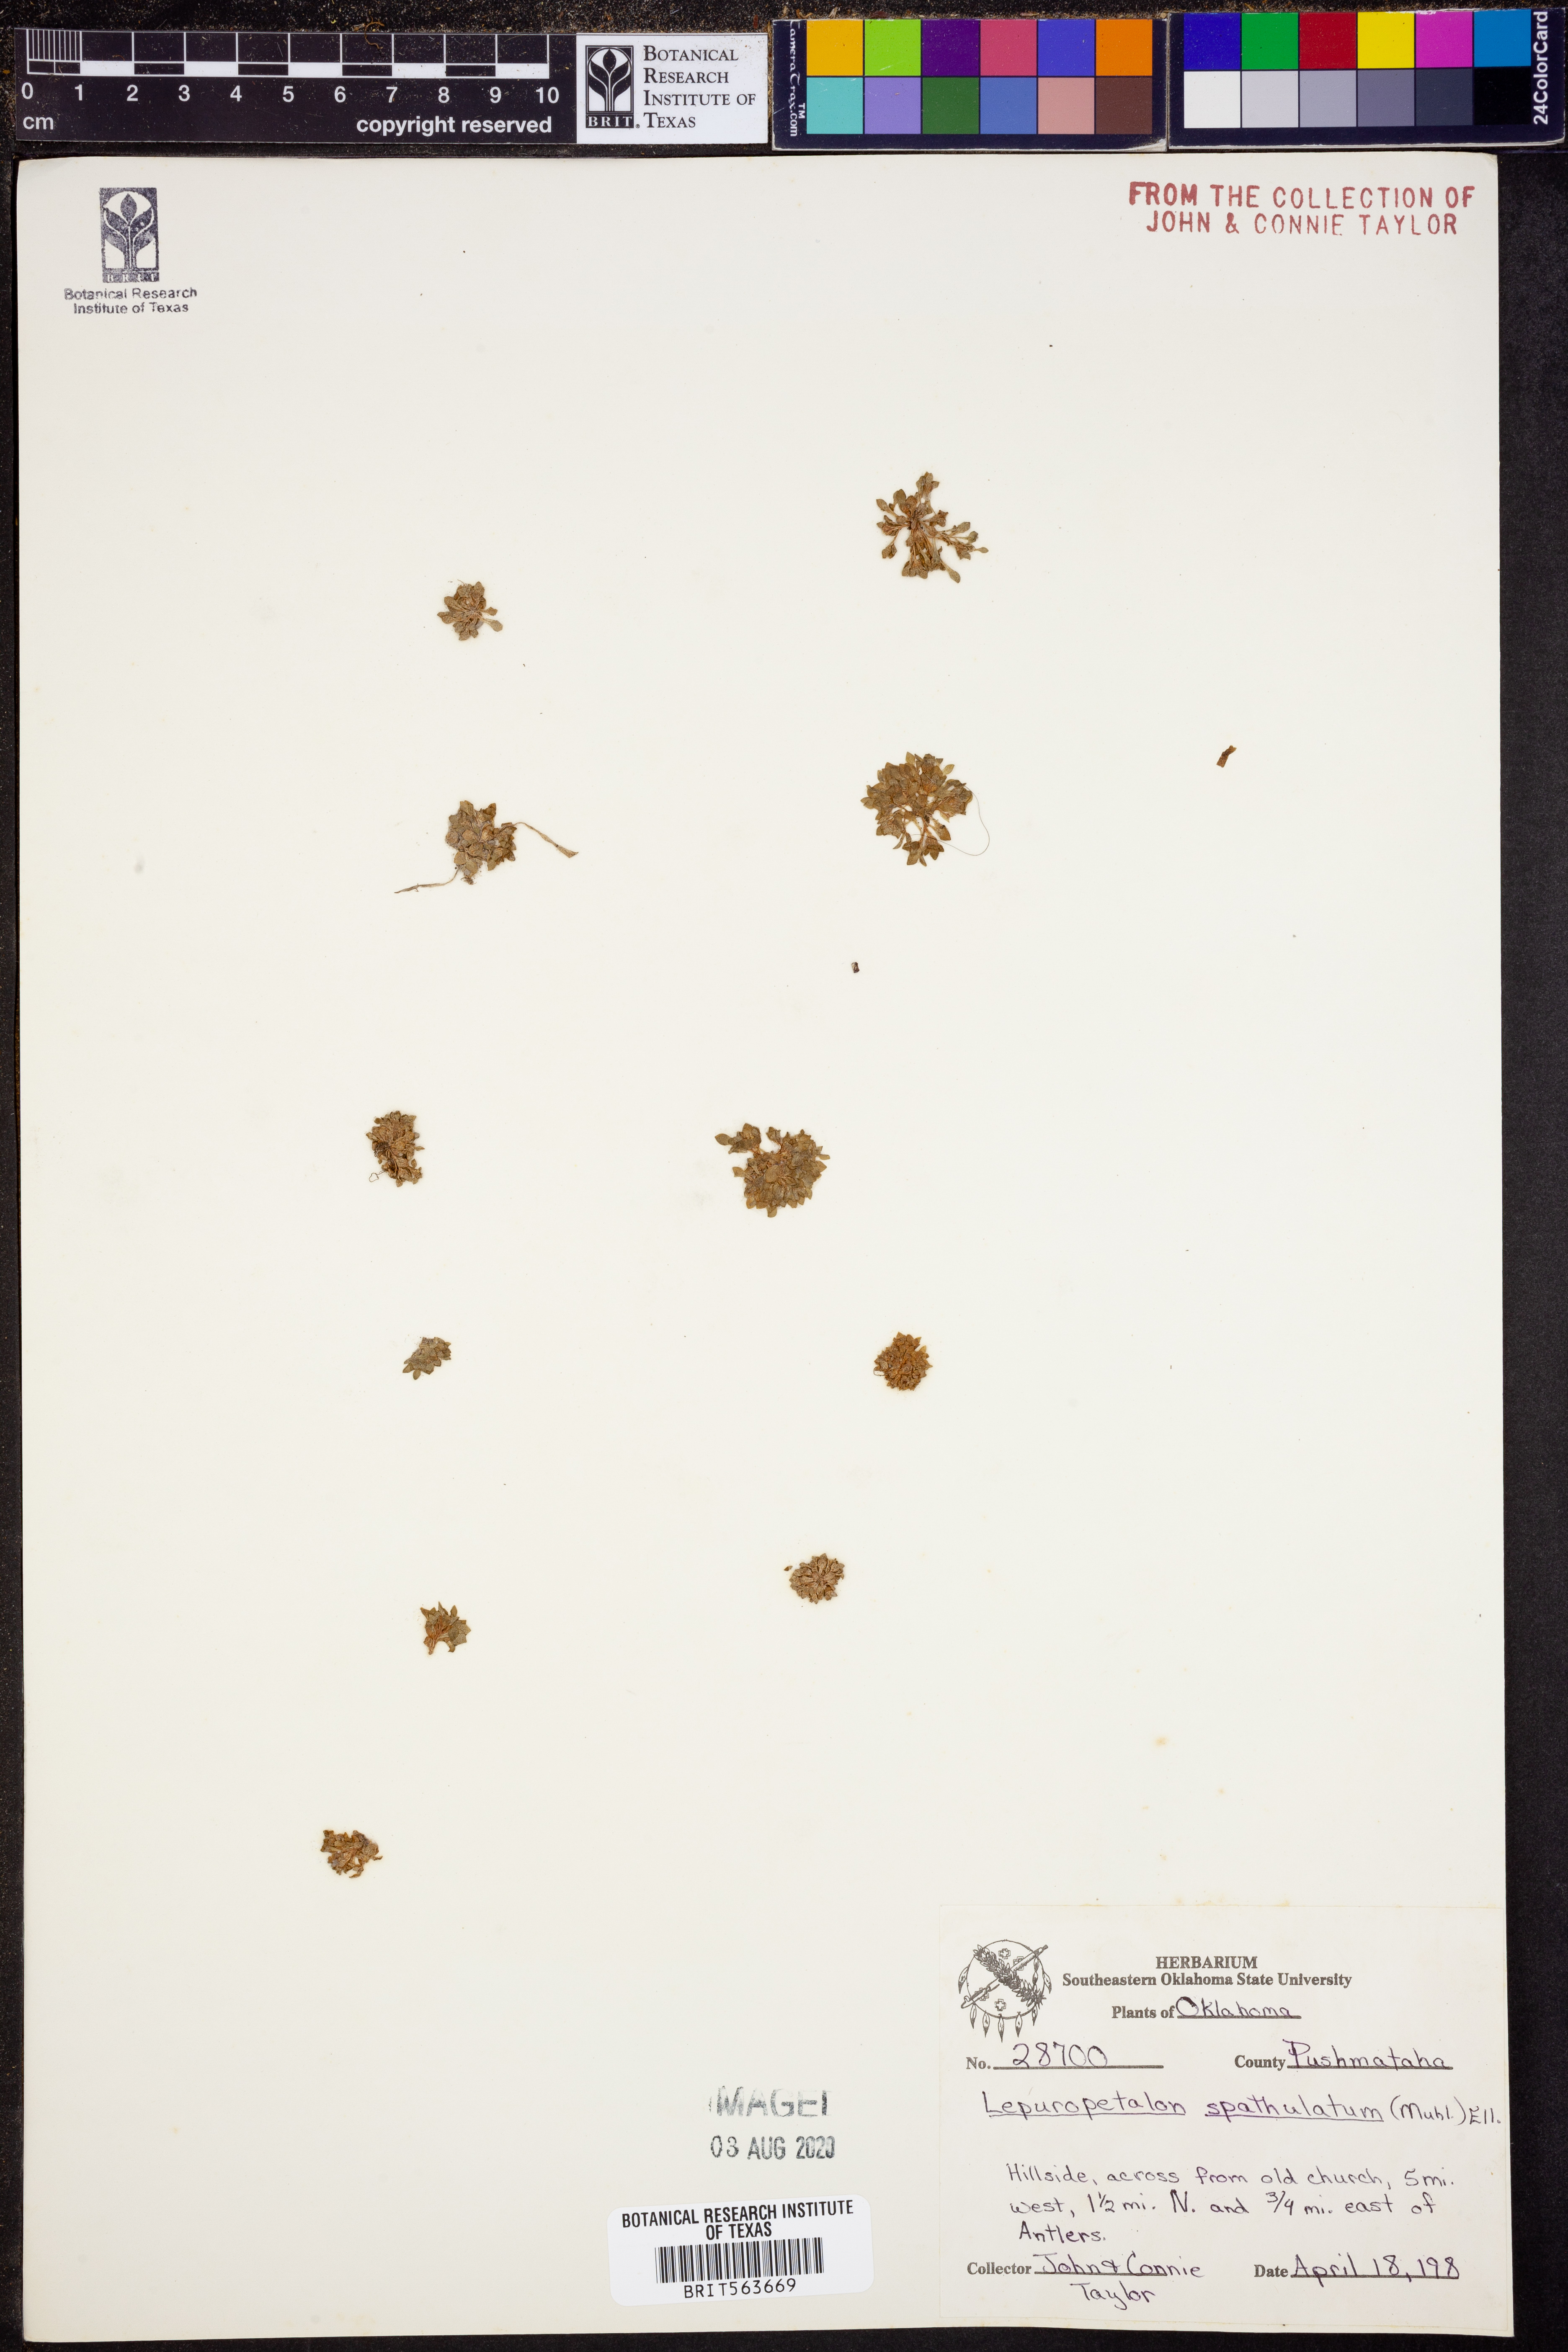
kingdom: Plantae
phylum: Tracheophyta
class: Magnoliopsida
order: Celastrales
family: Parnassiaceae
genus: Lepuropetalon
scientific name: Lepuropetalon spathulatum
